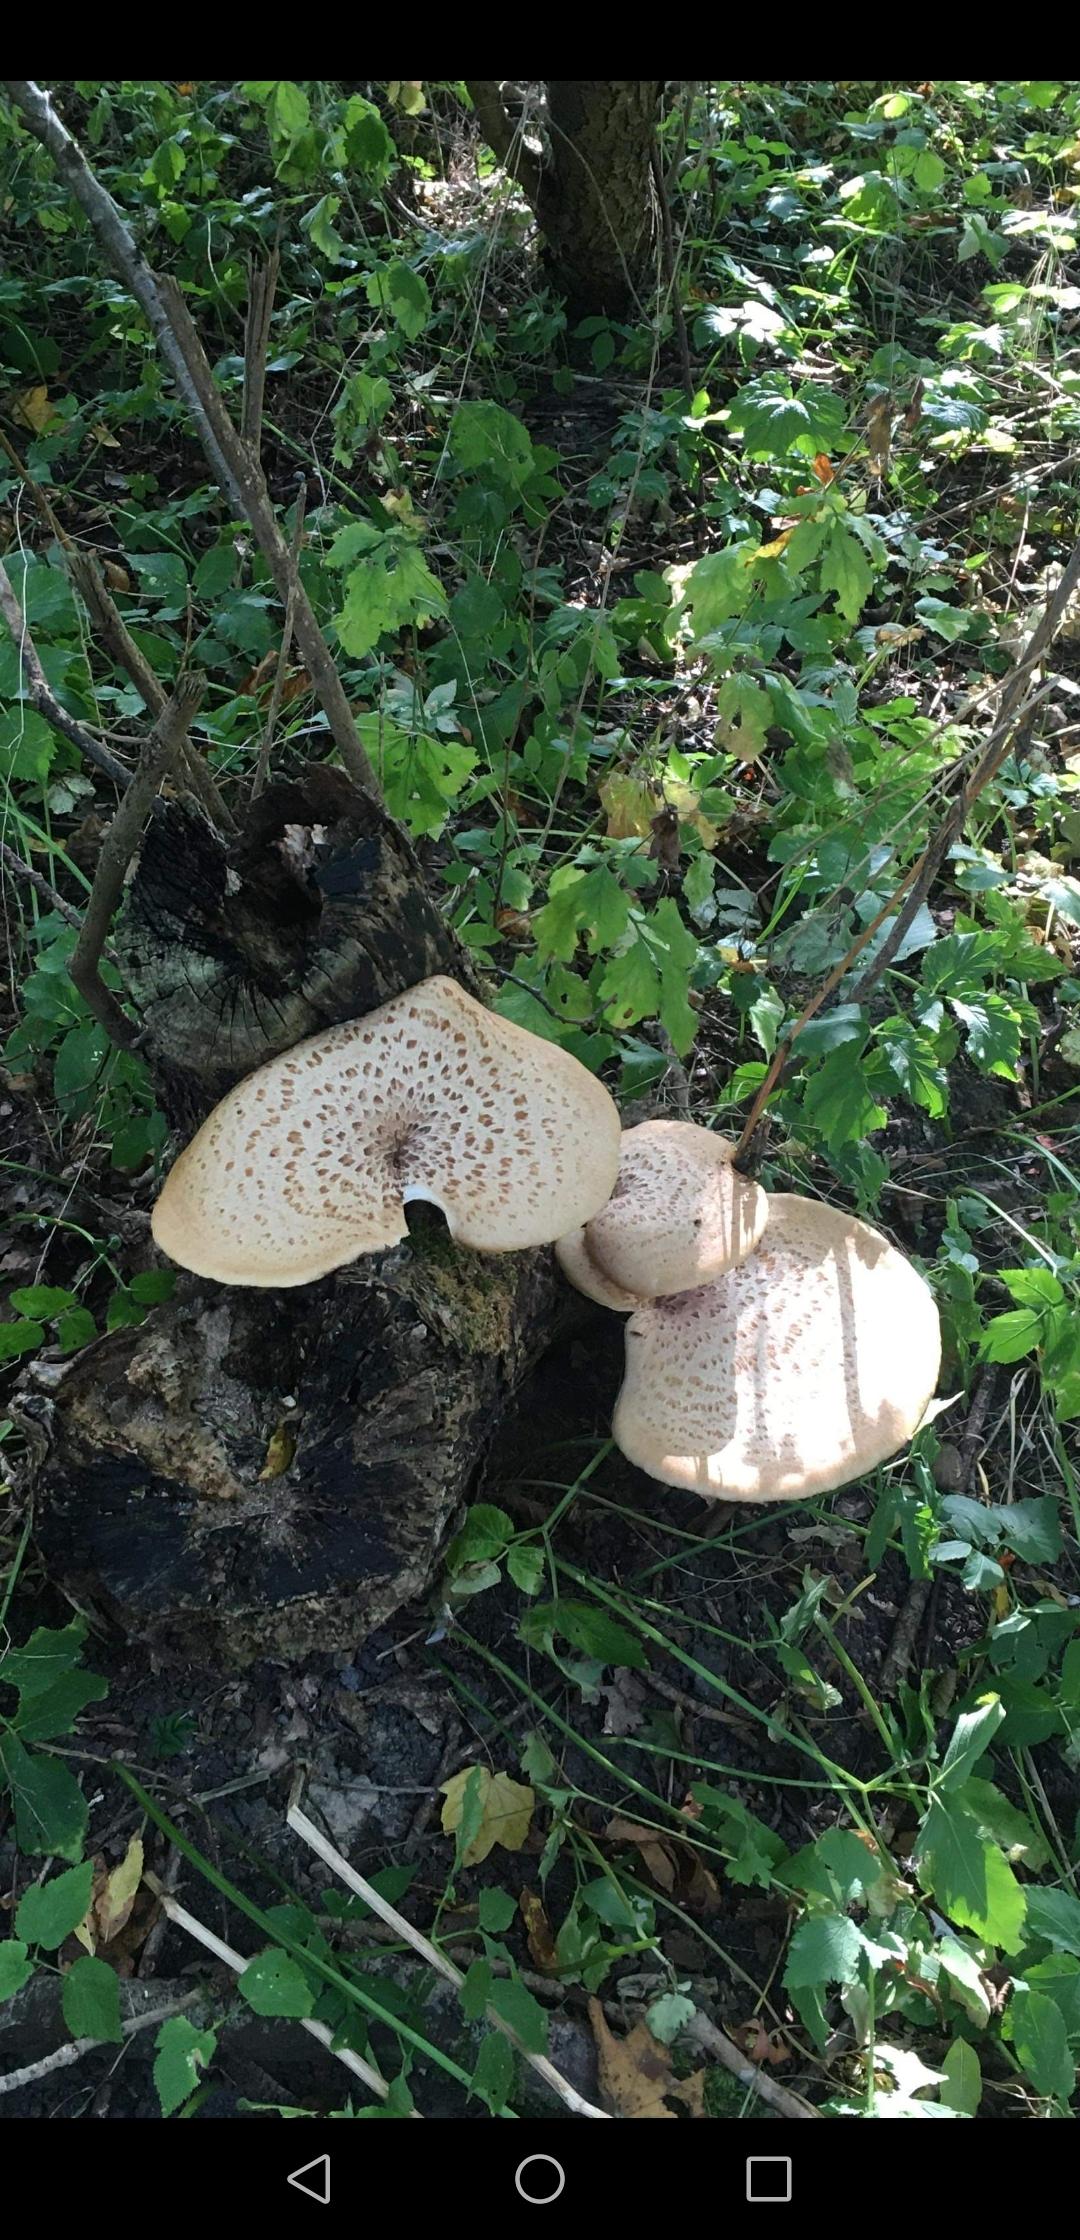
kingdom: Fungi
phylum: Basidiomycota
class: Agaricomycetes
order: Polyporales
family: Polyporaceae
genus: Cerioporus
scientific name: Cerioporus squamosus
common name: skællet stilkporesvamp
